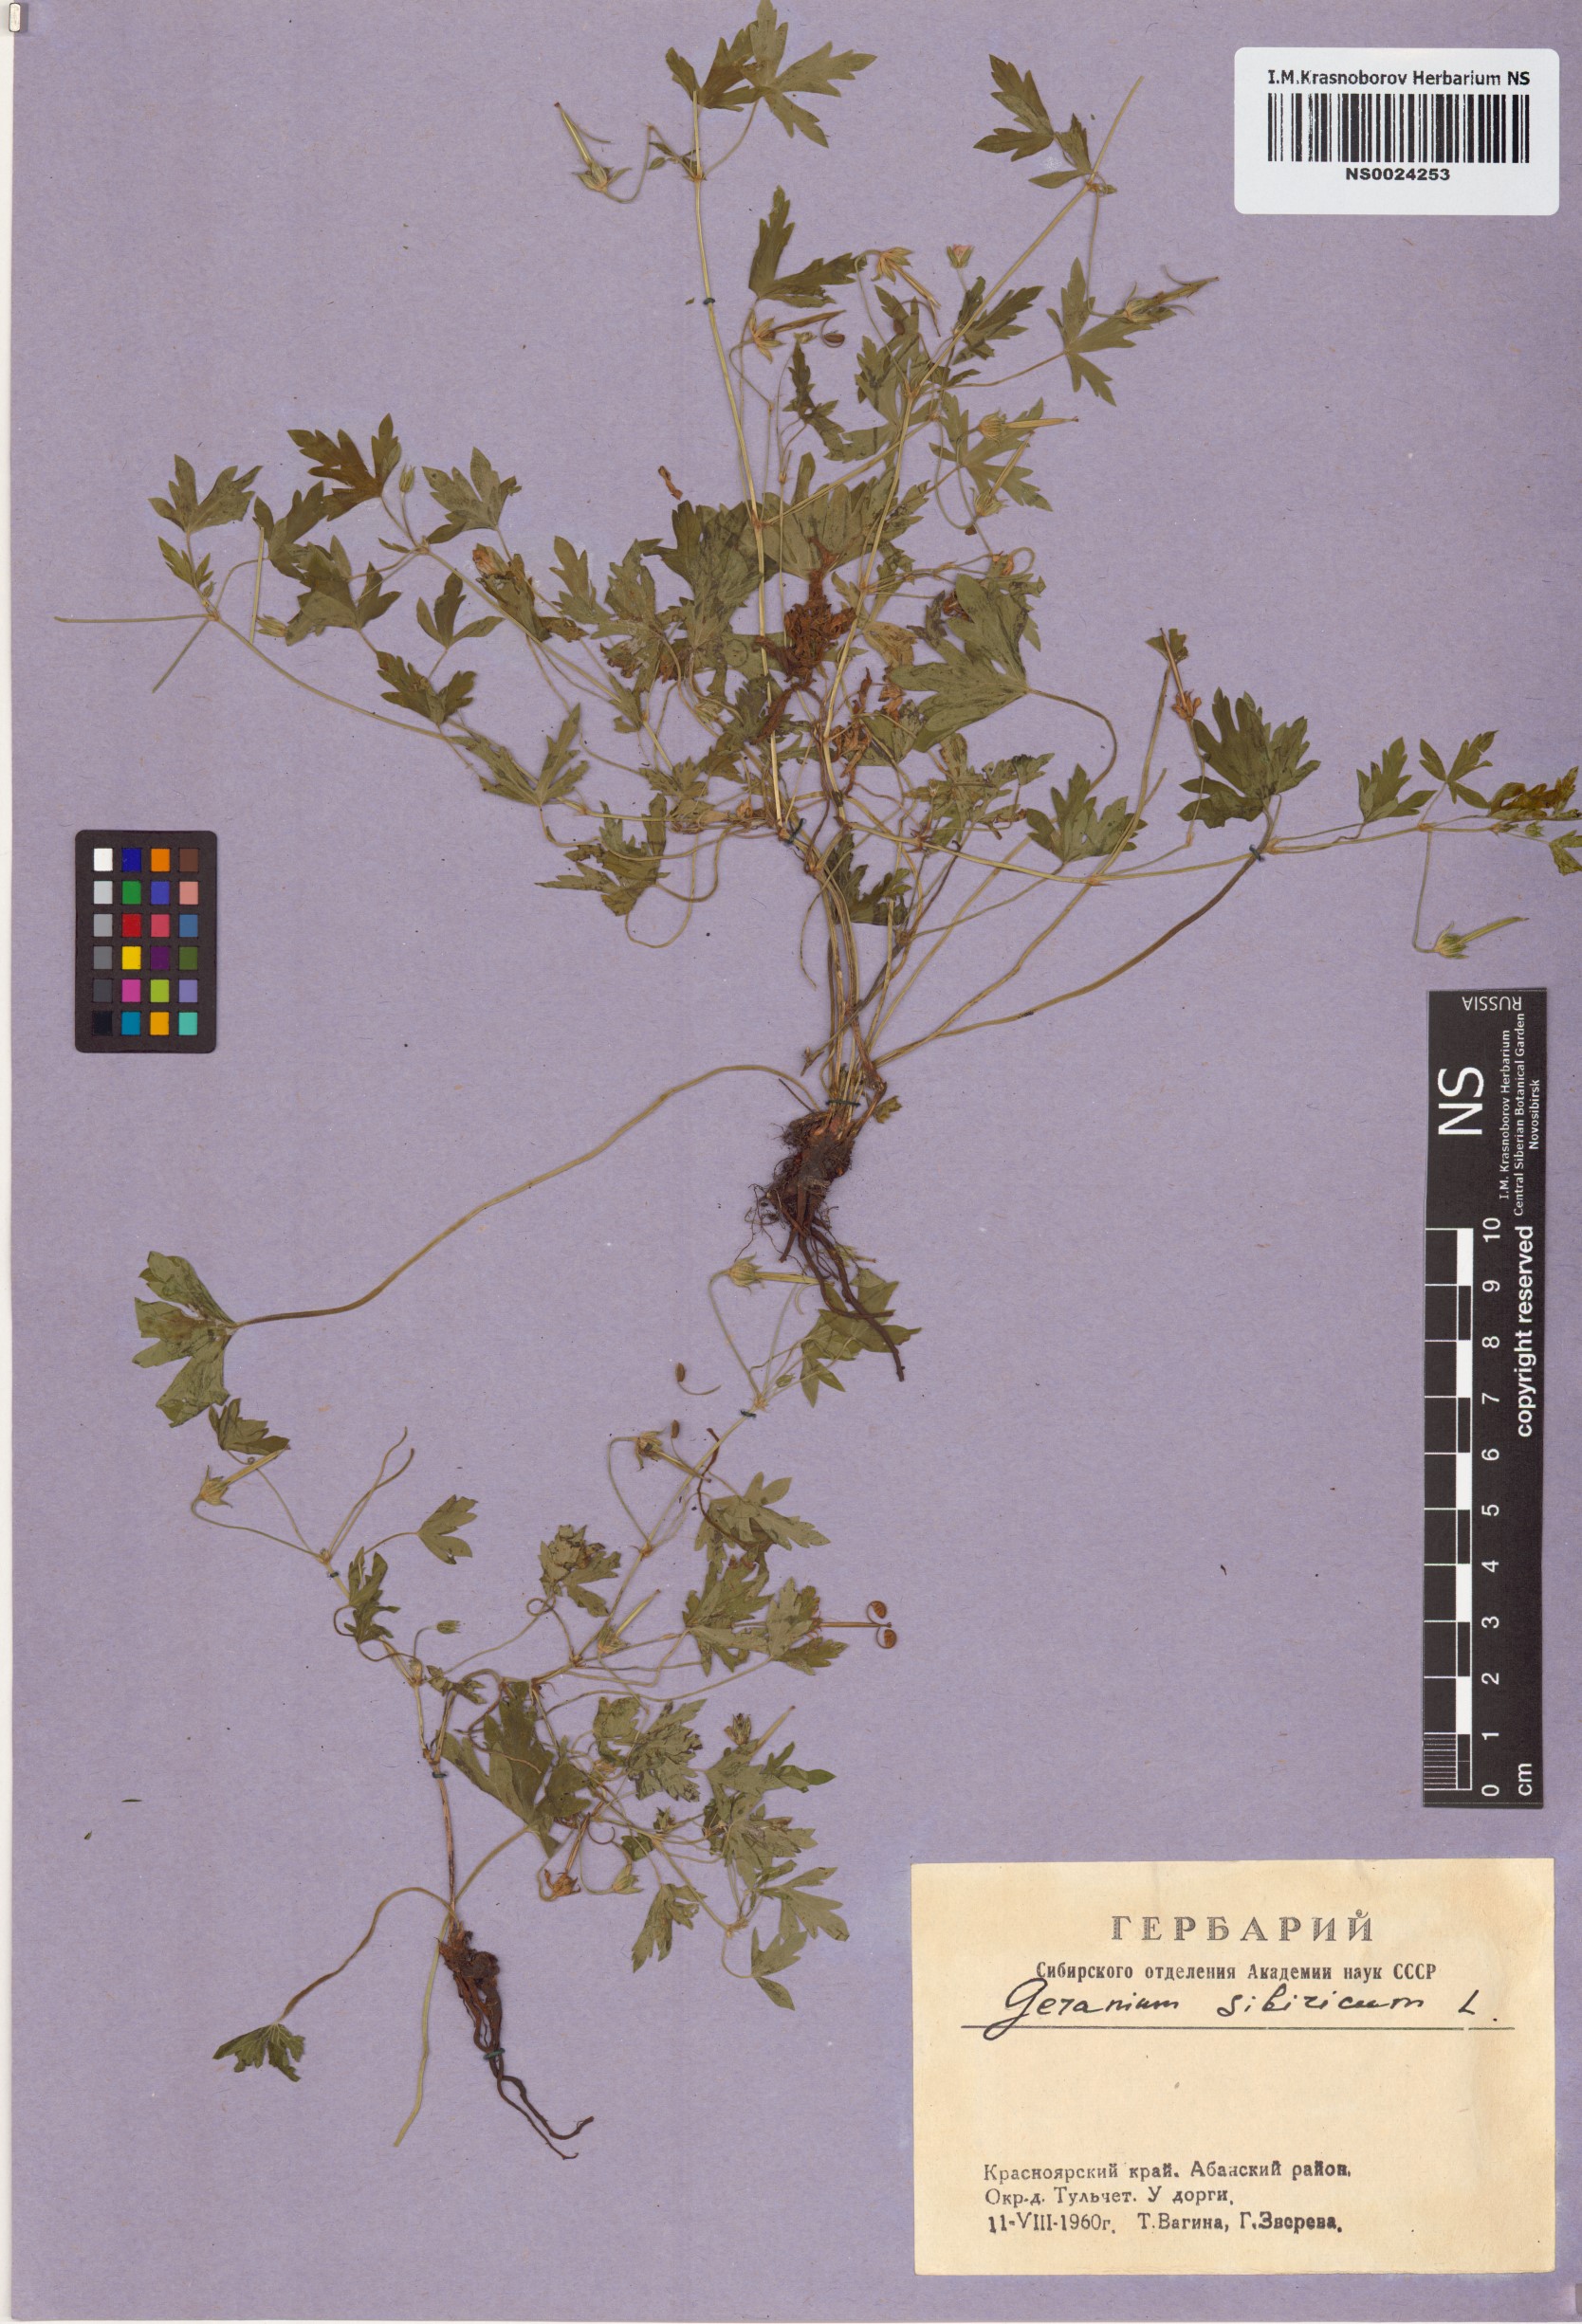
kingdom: Plantae
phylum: Tracheophyta
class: Magnoliopsida
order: Geraniales
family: Geraniaceae
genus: Geranium
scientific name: Geranium sibiricum
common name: Siberian crane's-bill
